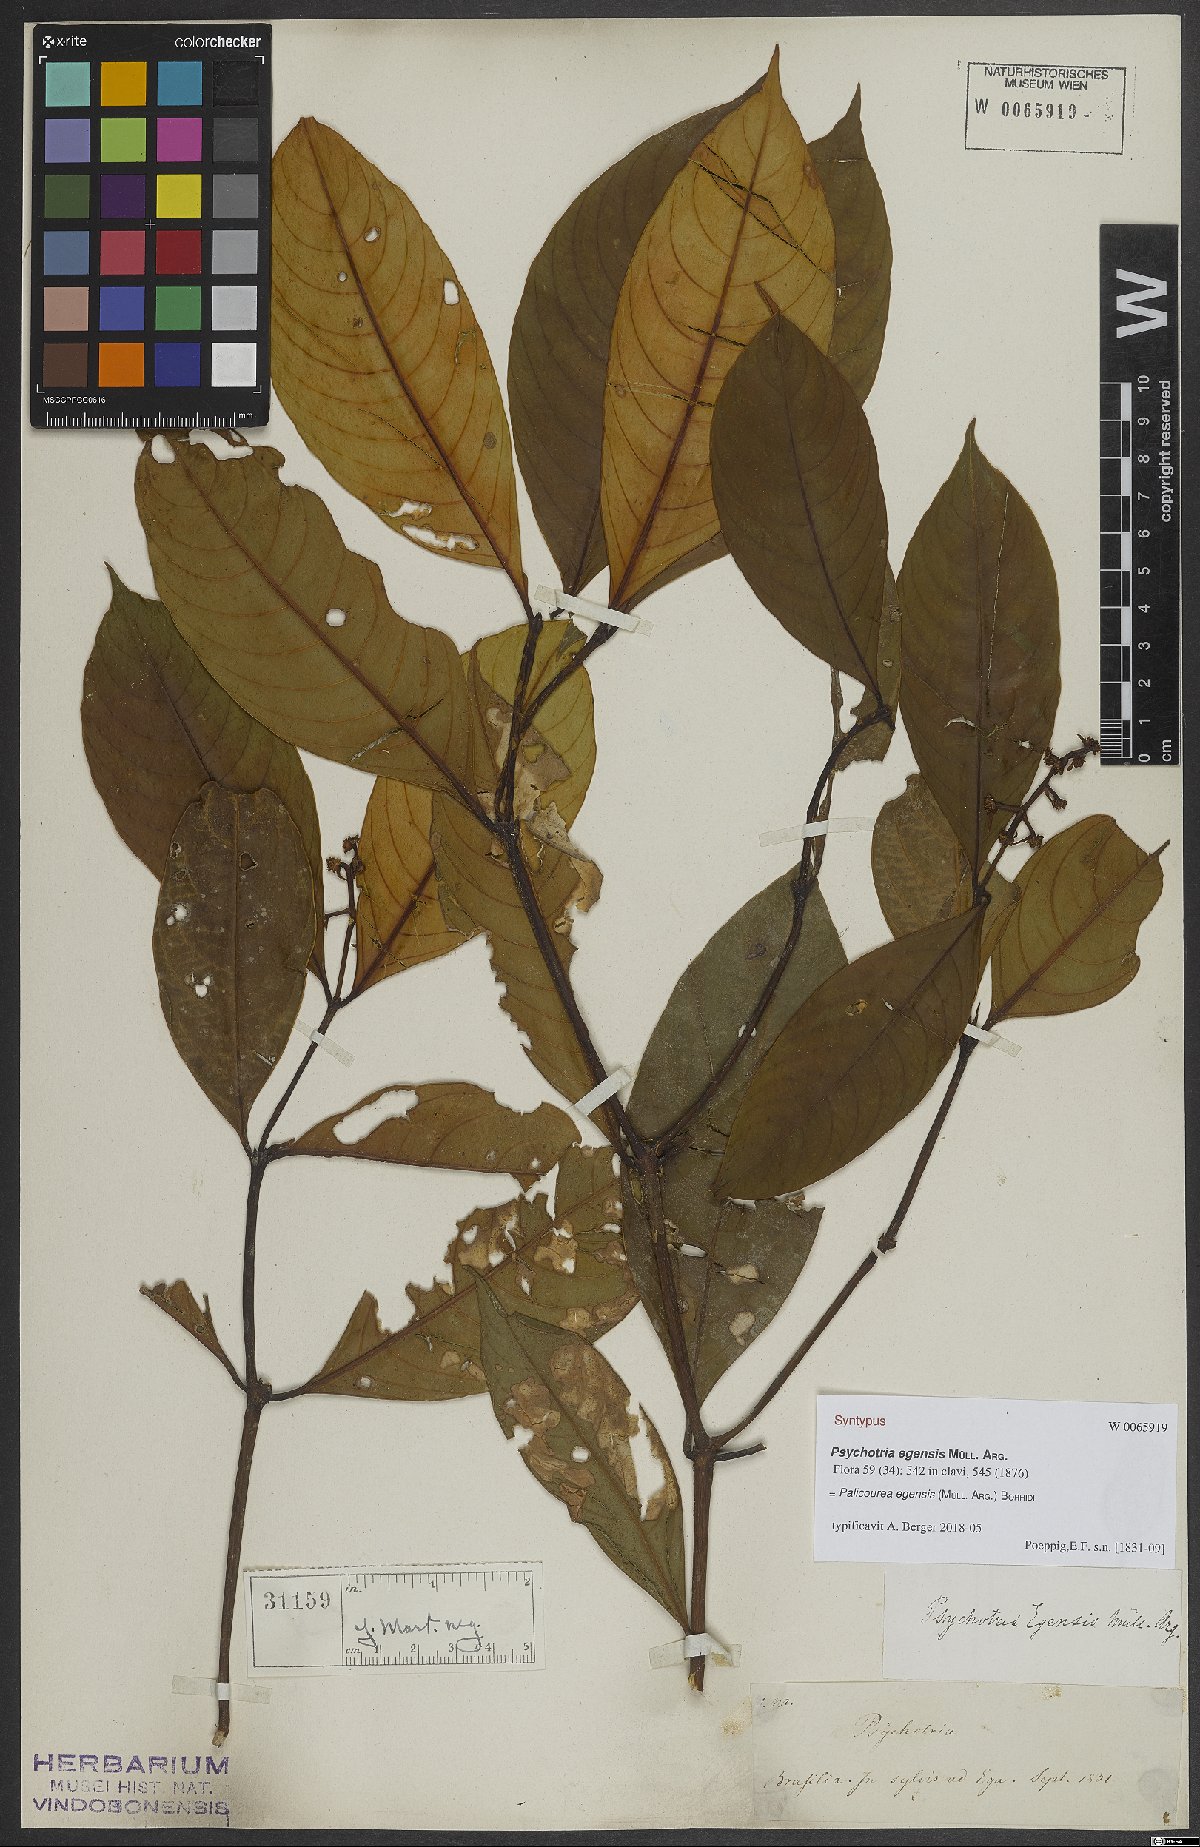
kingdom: Plantae
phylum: Tracheophyta
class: Magnoliopsida
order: Gentianales
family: Rubiaceae
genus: Palicourea
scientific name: Palicourea egensis
